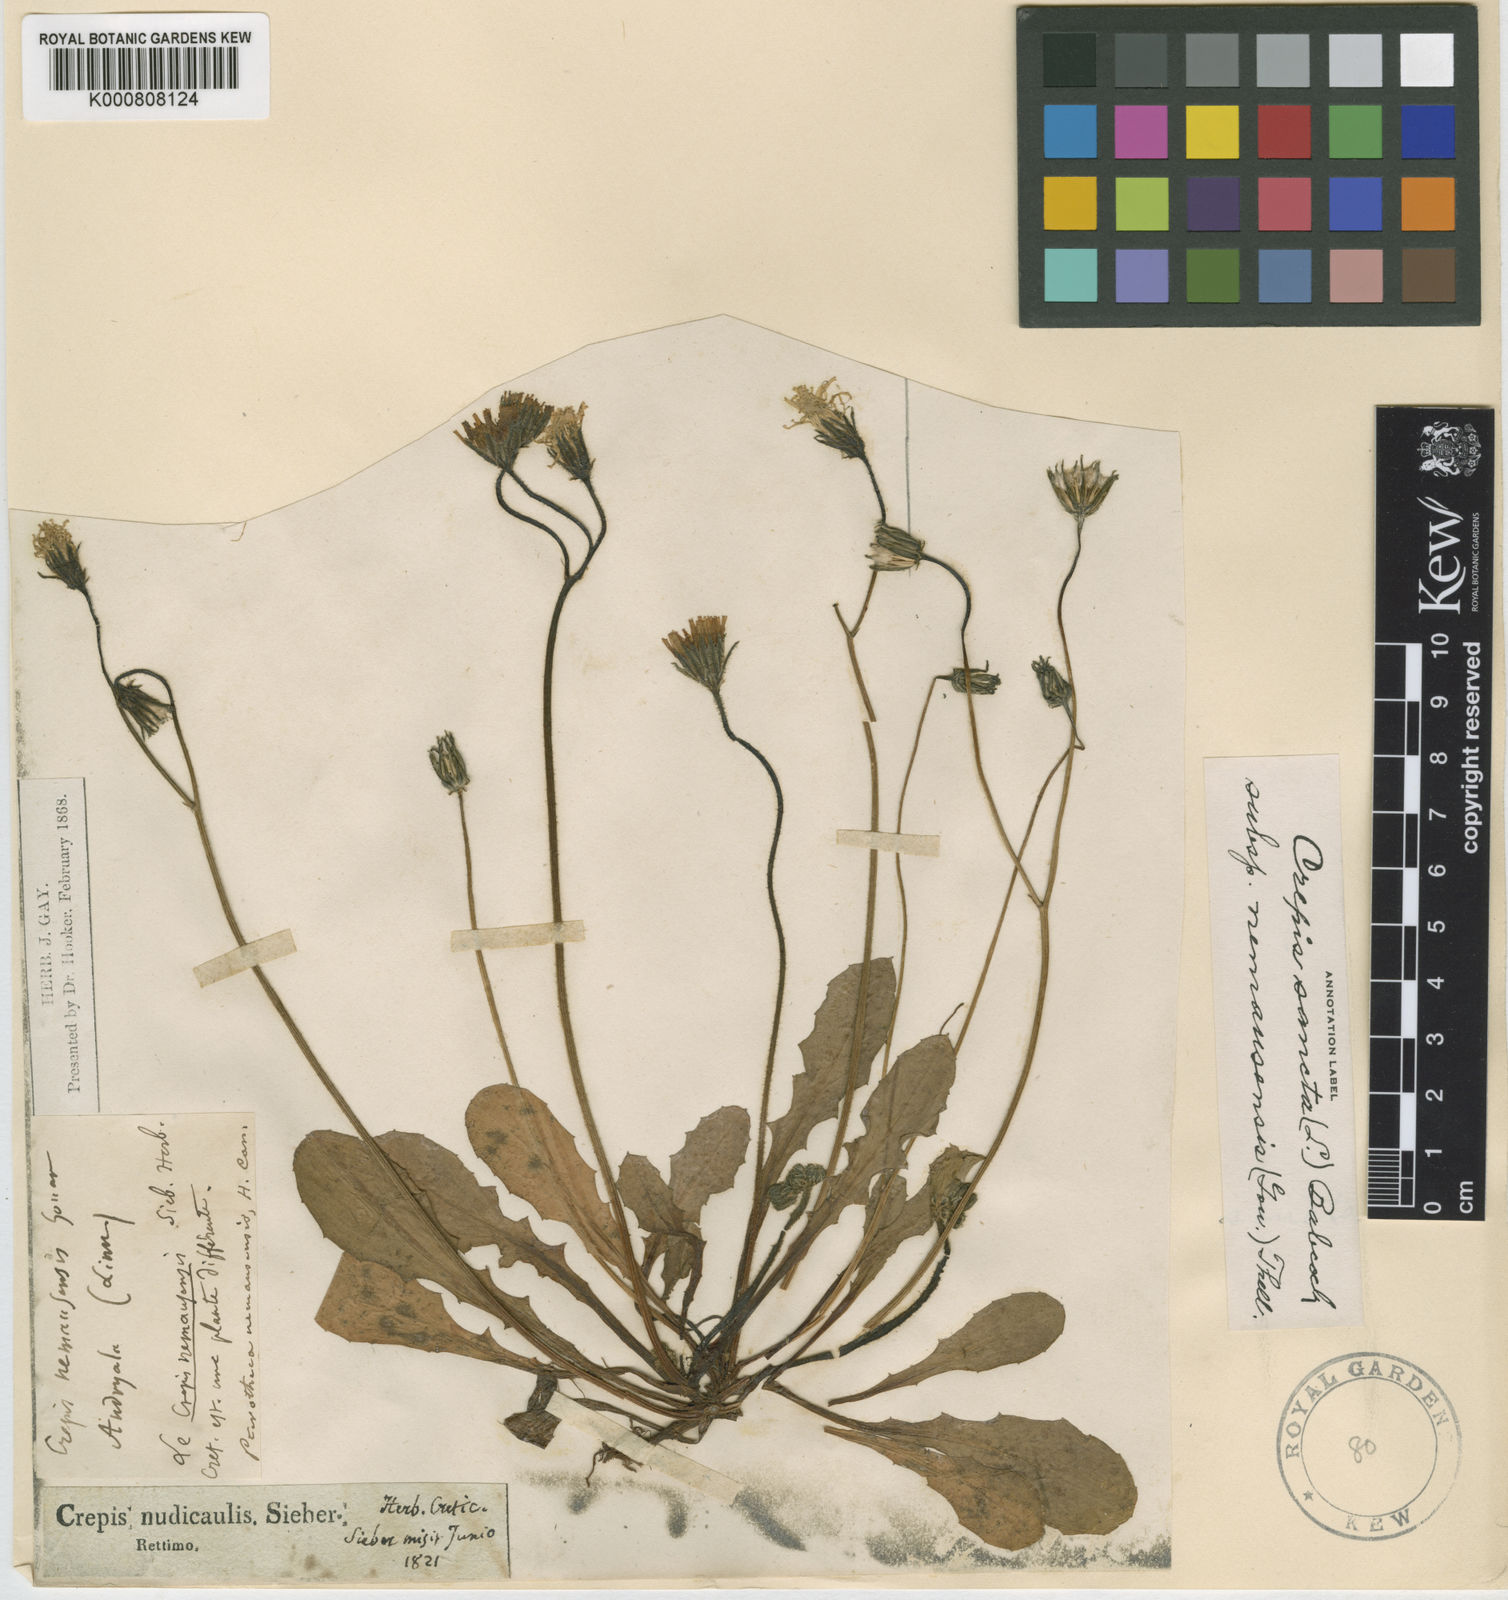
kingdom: Plantae
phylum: Tracheophyta
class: Magnoliopsida
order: Asterales
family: Asteraceae
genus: Crepis
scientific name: Crepis sancta
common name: Hawk's-beard
